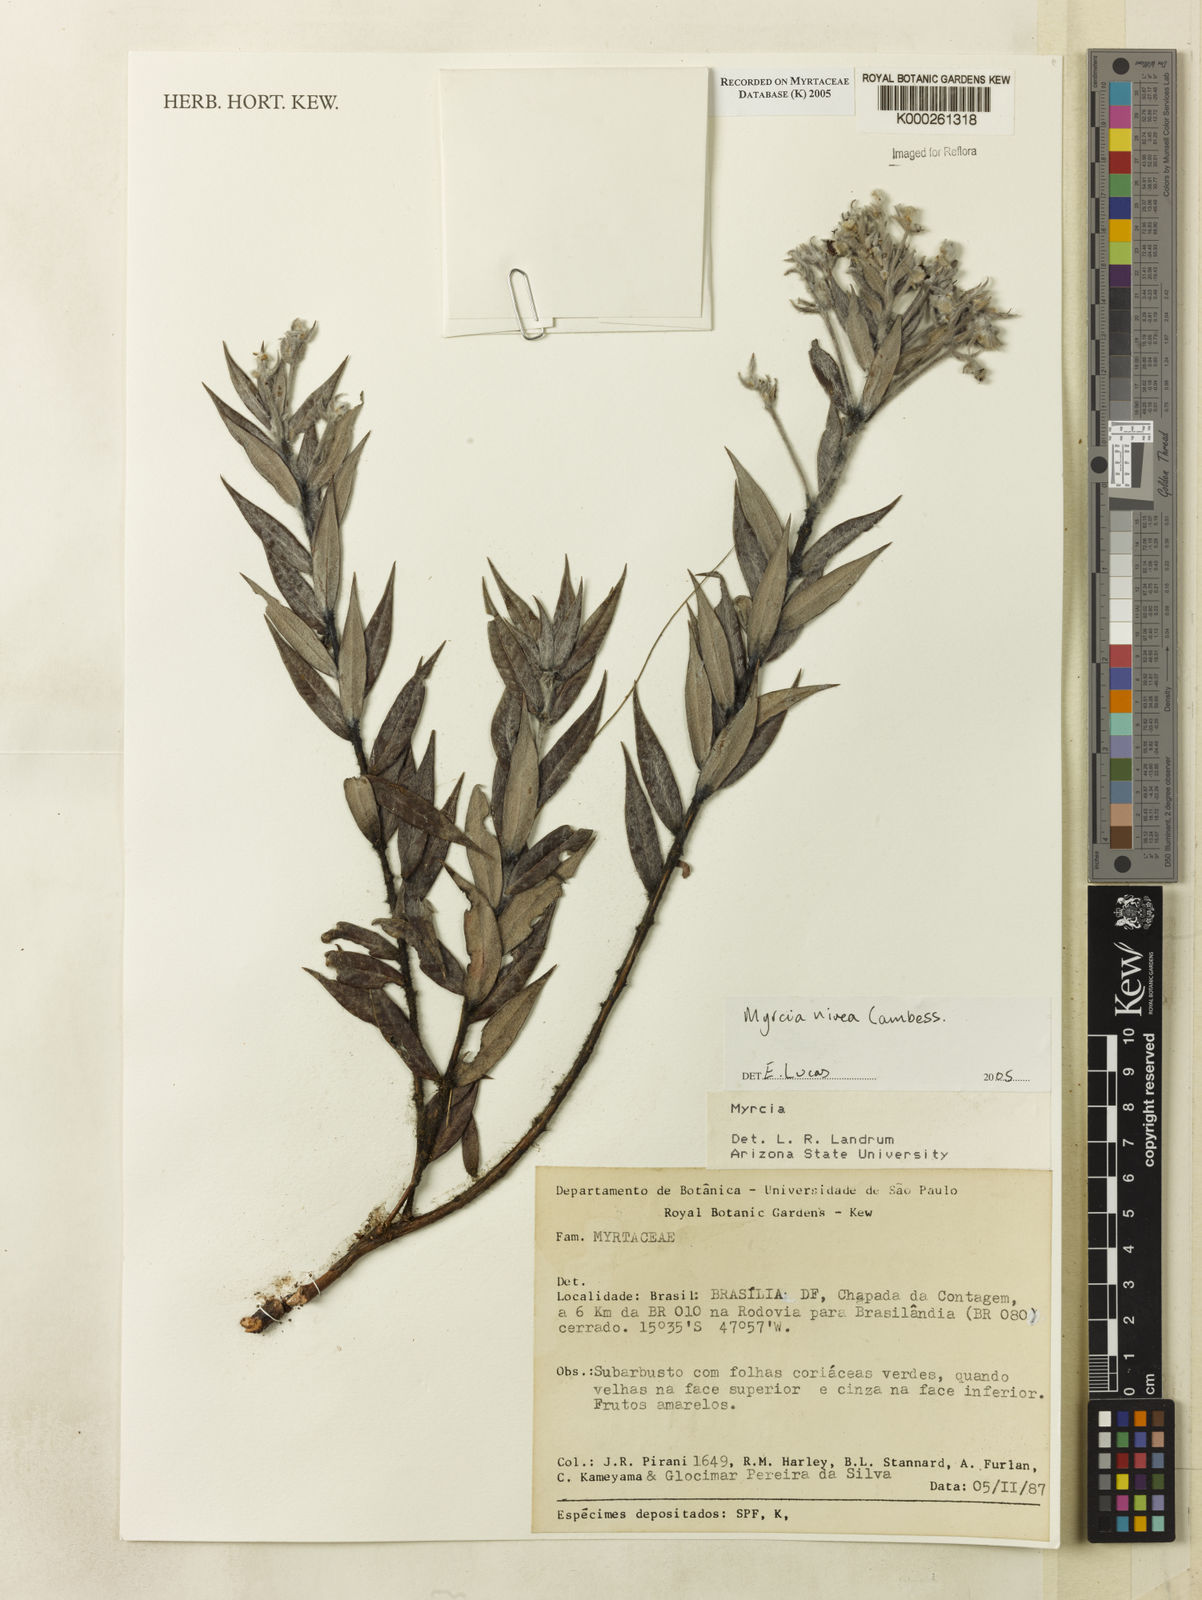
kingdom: Plantae
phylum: Tracheophyta
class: Magnoliopsida
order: Myrtales
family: Myrtaceae
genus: Myrcia
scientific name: Myrcia nivea
